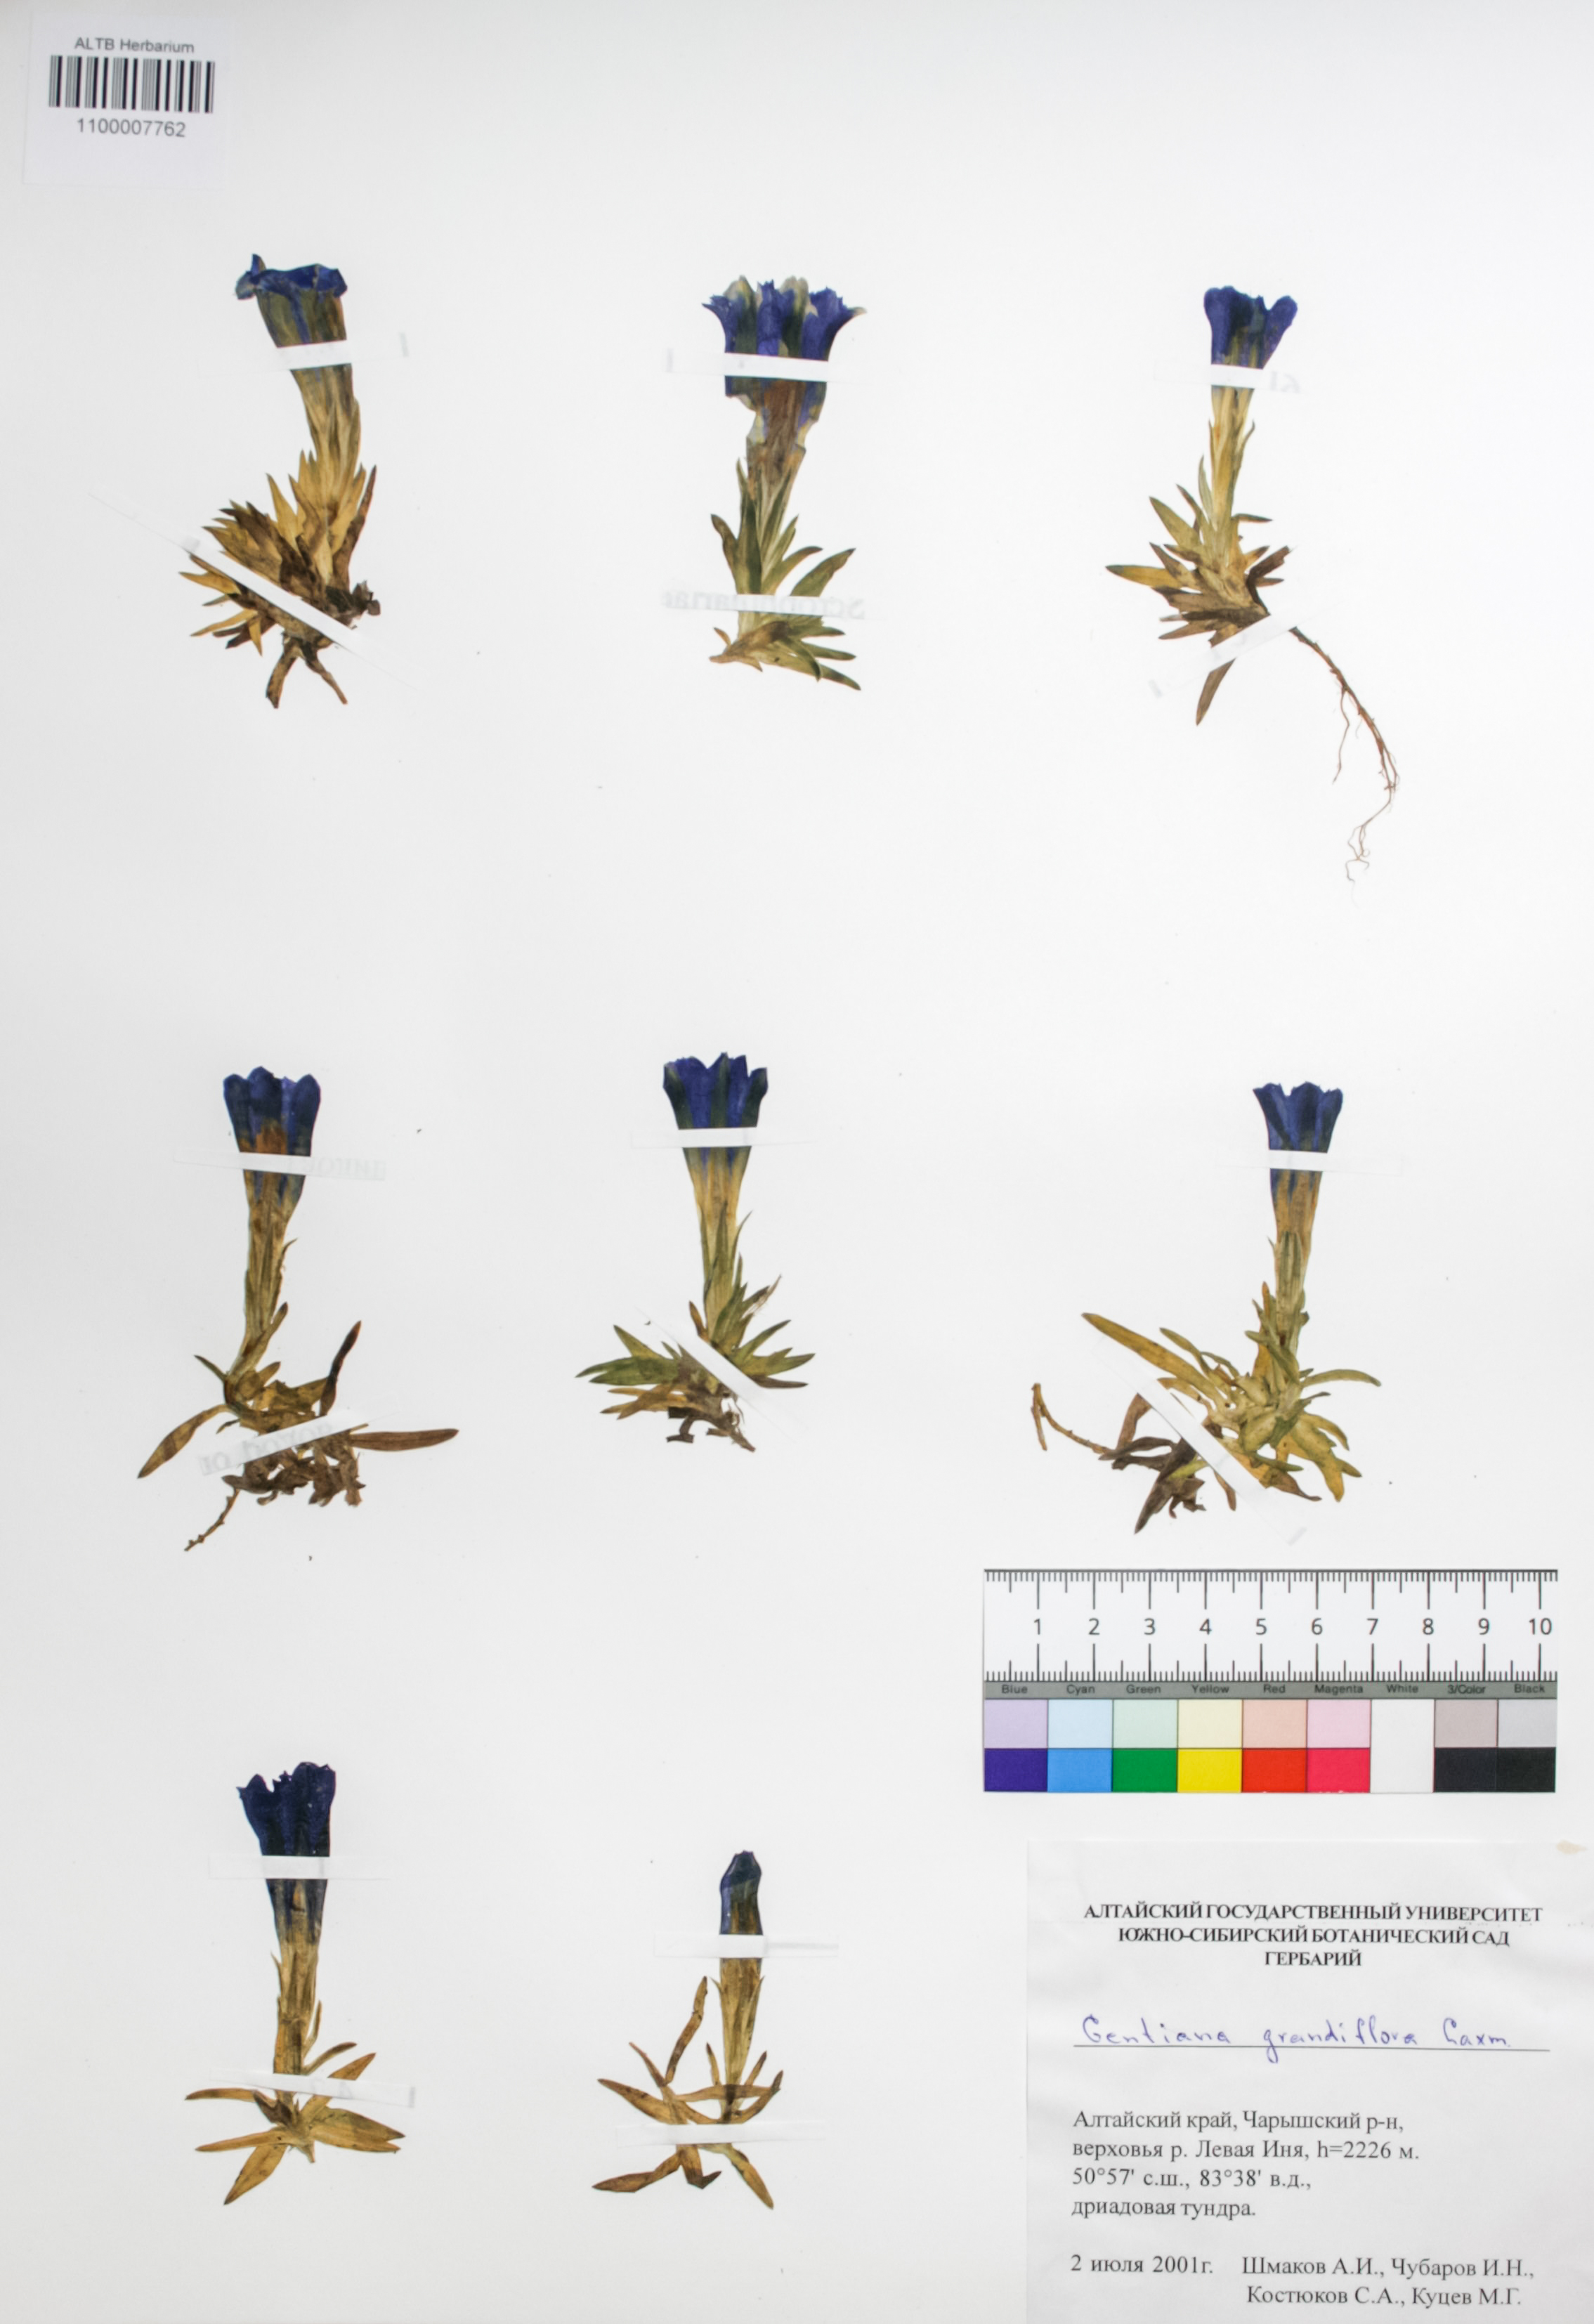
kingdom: Plantae
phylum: Tracheophyta
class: Magnoliopsida
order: Gentianales
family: Gentianaceae
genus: Gentiana
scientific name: Gentiana grandiflora
